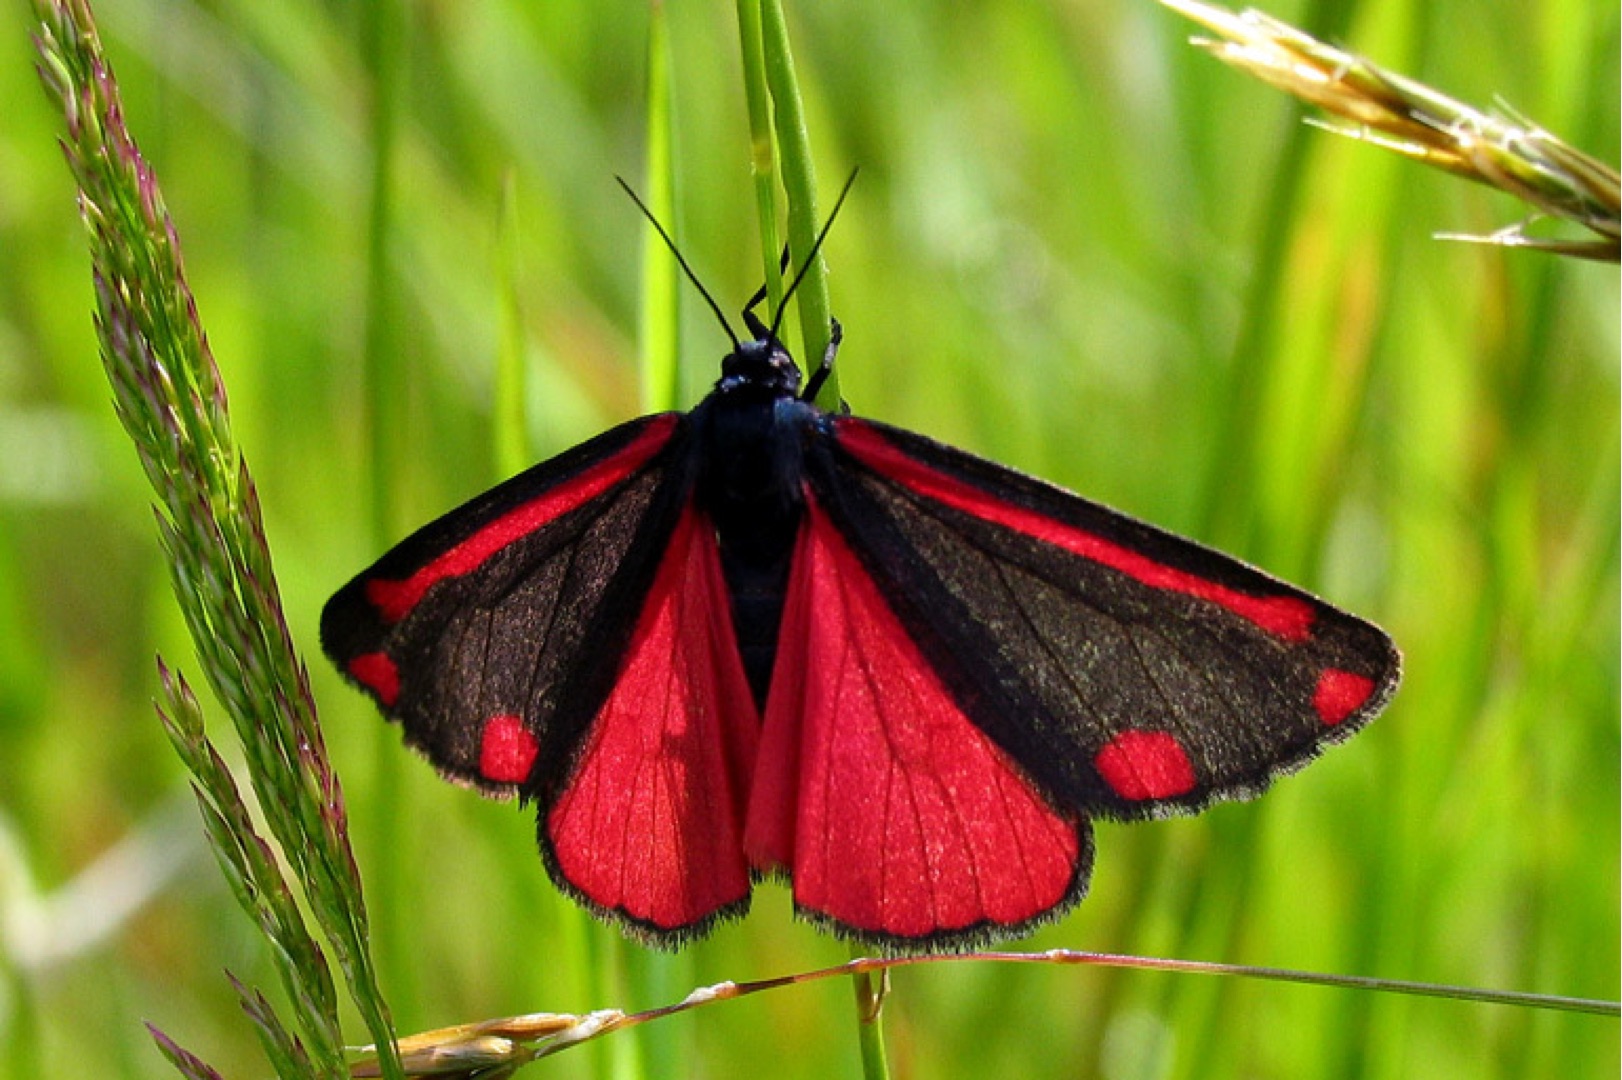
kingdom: Animalia
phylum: Arthropoda
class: Insecta
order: Lepidoptera
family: Erebidae
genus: Tyria
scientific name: Tyria jacobaeae
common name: Blodplet
